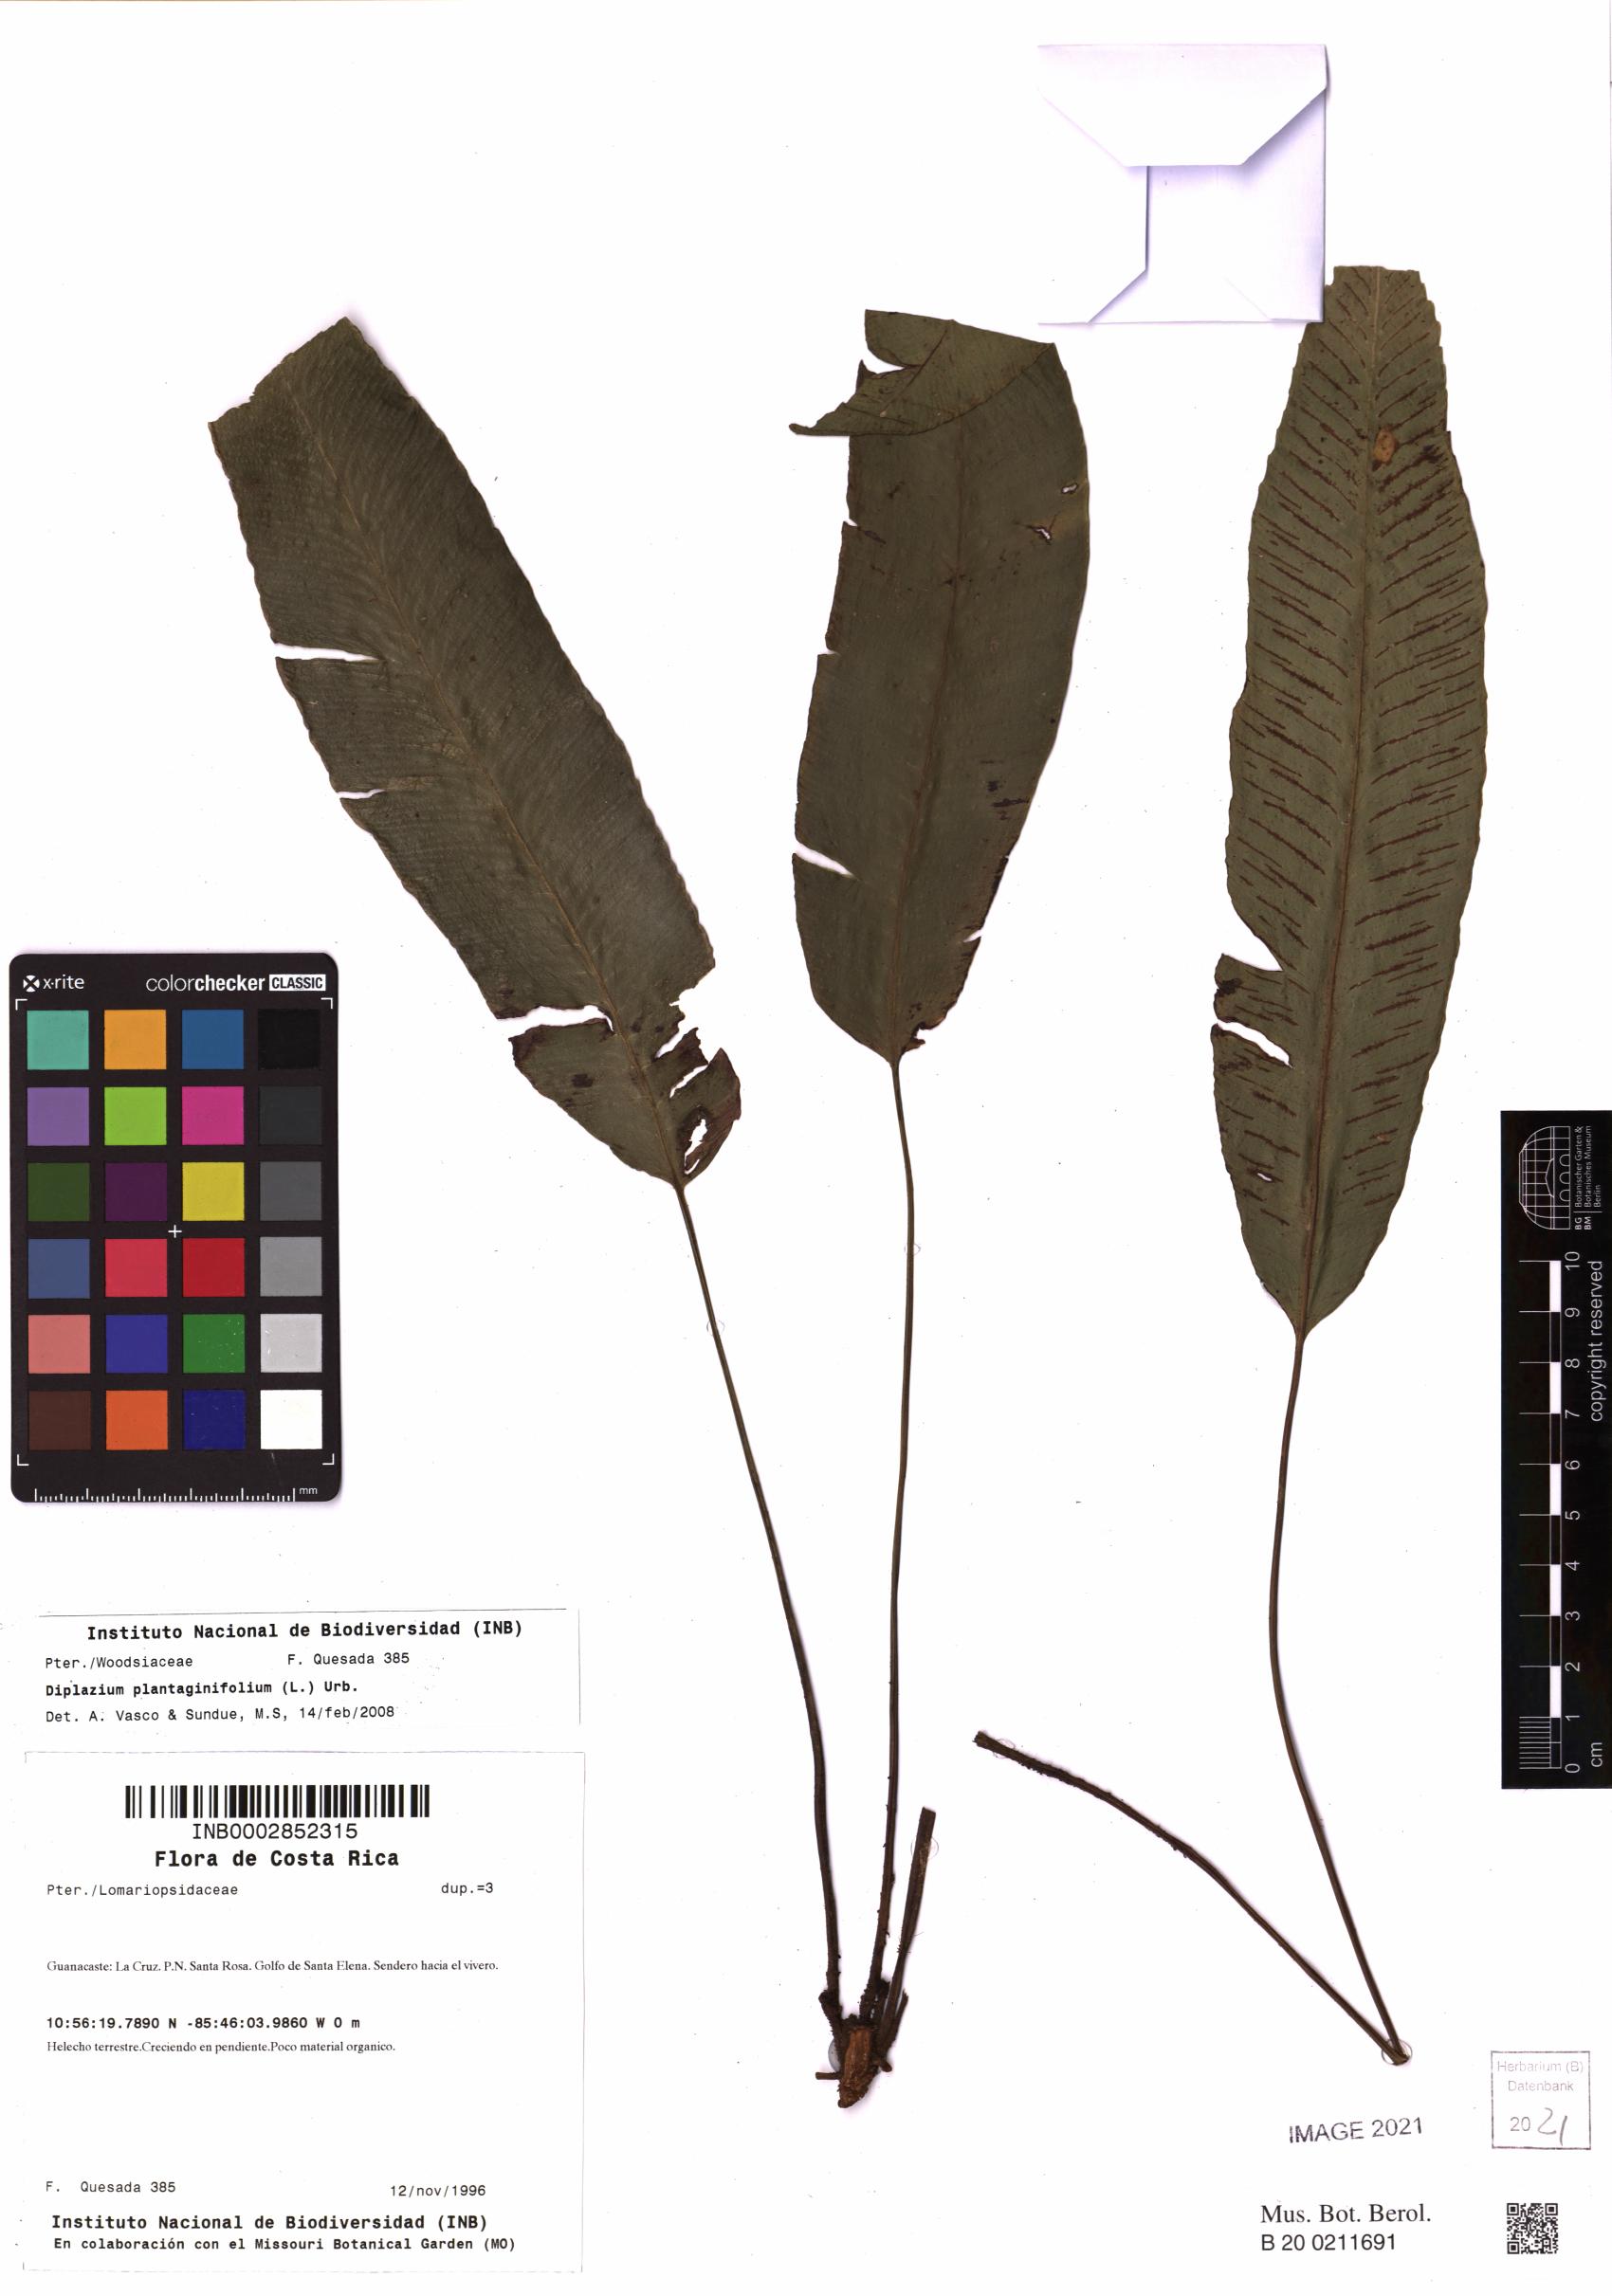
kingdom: Plantae
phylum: Tracheophyta
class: Polypodiopsida
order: Polypodiales
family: Athyriaceae
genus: Diplazium
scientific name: Diplazium plantaginifolium
